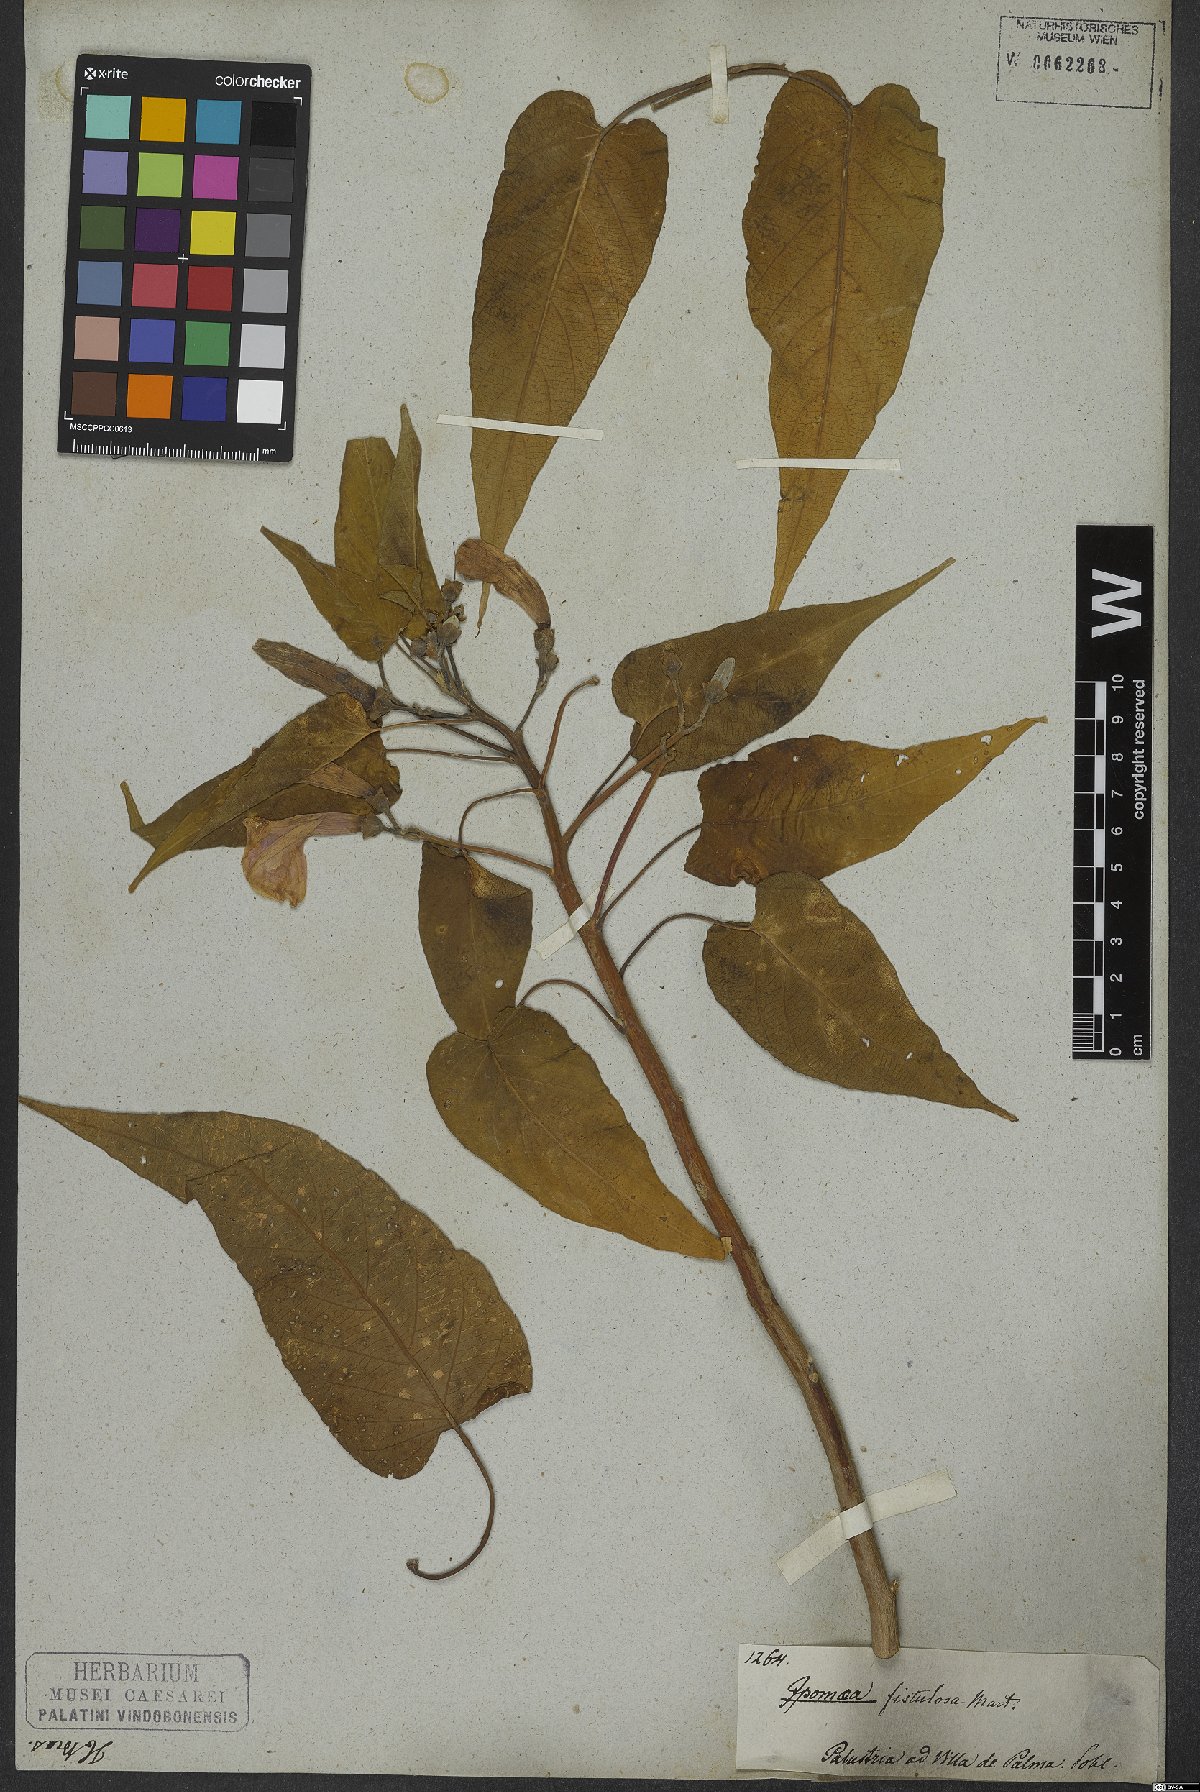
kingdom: Plantae
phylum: Tracheophyta
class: Magnoliopsida
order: Solanales
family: Convolvulaceae
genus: Ipomoea
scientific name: Ipomoea carnea
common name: Morning-glory
